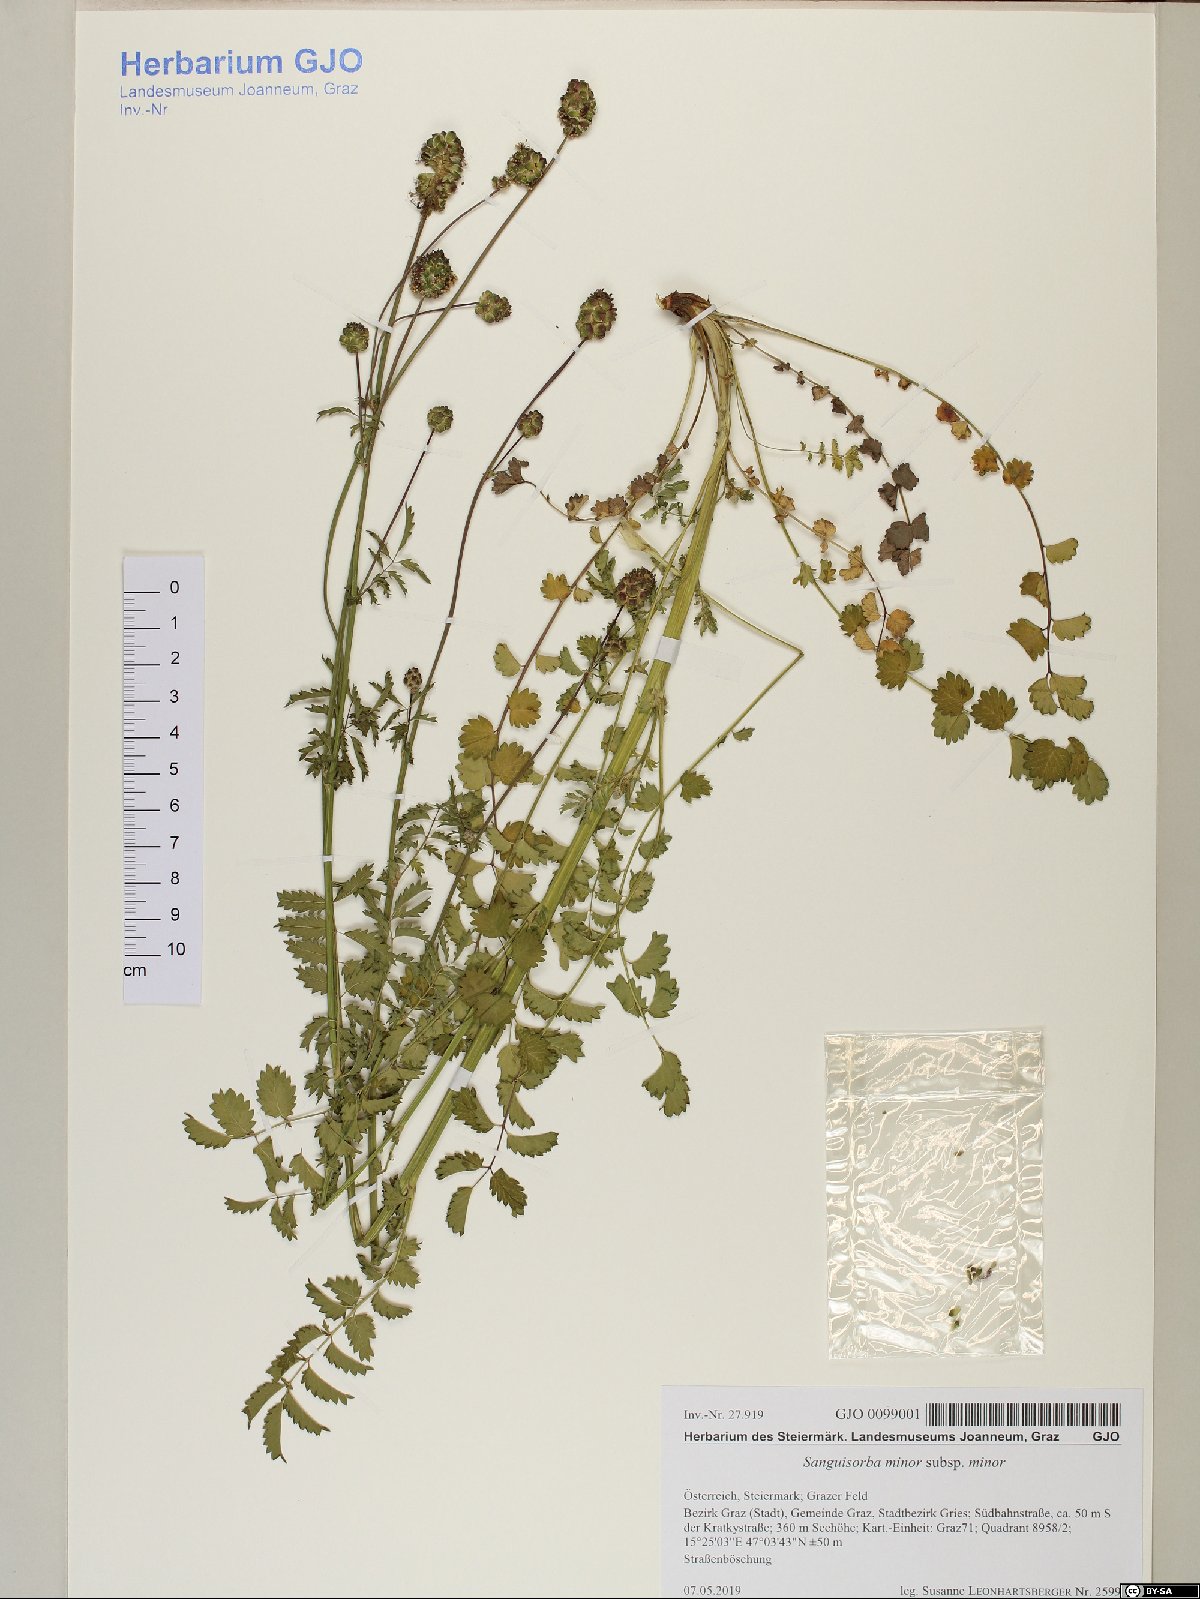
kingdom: Plantae
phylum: Tracheophyta
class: Magnoliopsida
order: Rosales
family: Rosaceae
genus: Poterium
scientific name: Poterium sanguisorba
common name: Salad burnet
